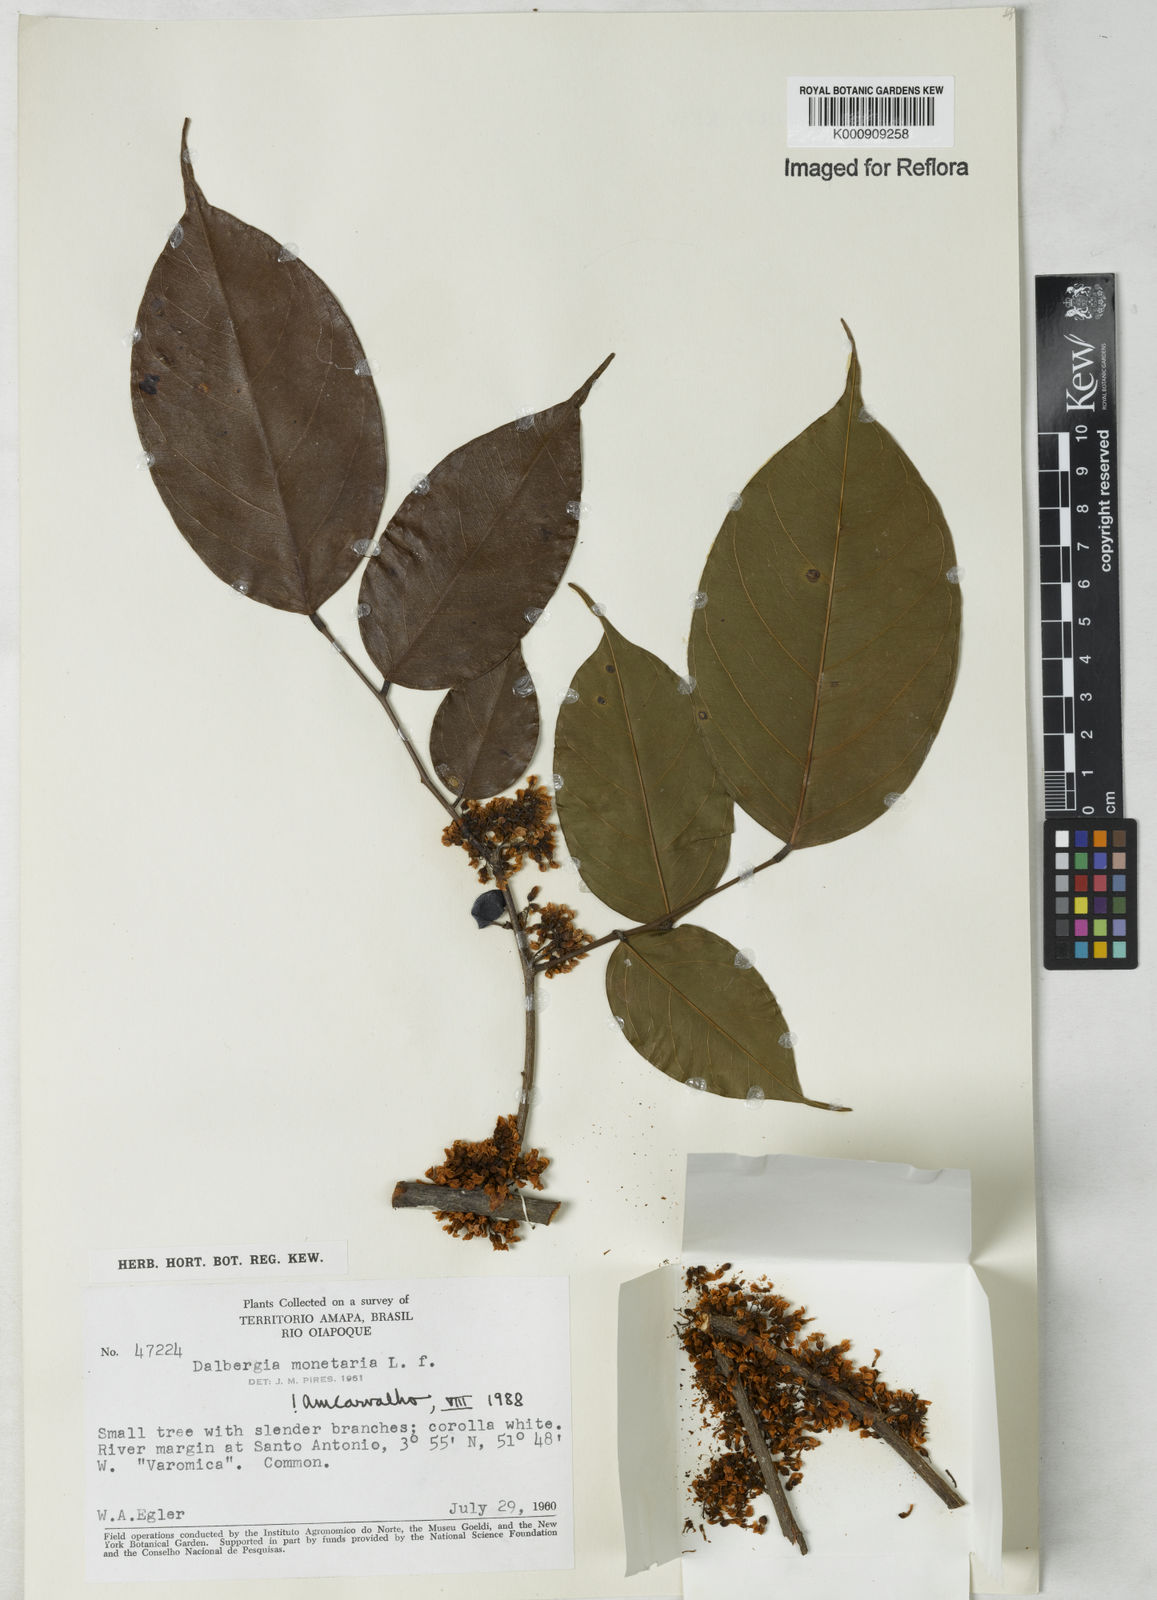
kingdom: Plantae
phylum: Tracheophyta
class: Magnoliopsida
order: Fabales
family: Fabaceae
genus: Dalbergia
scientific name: Dalbergia ovalis
